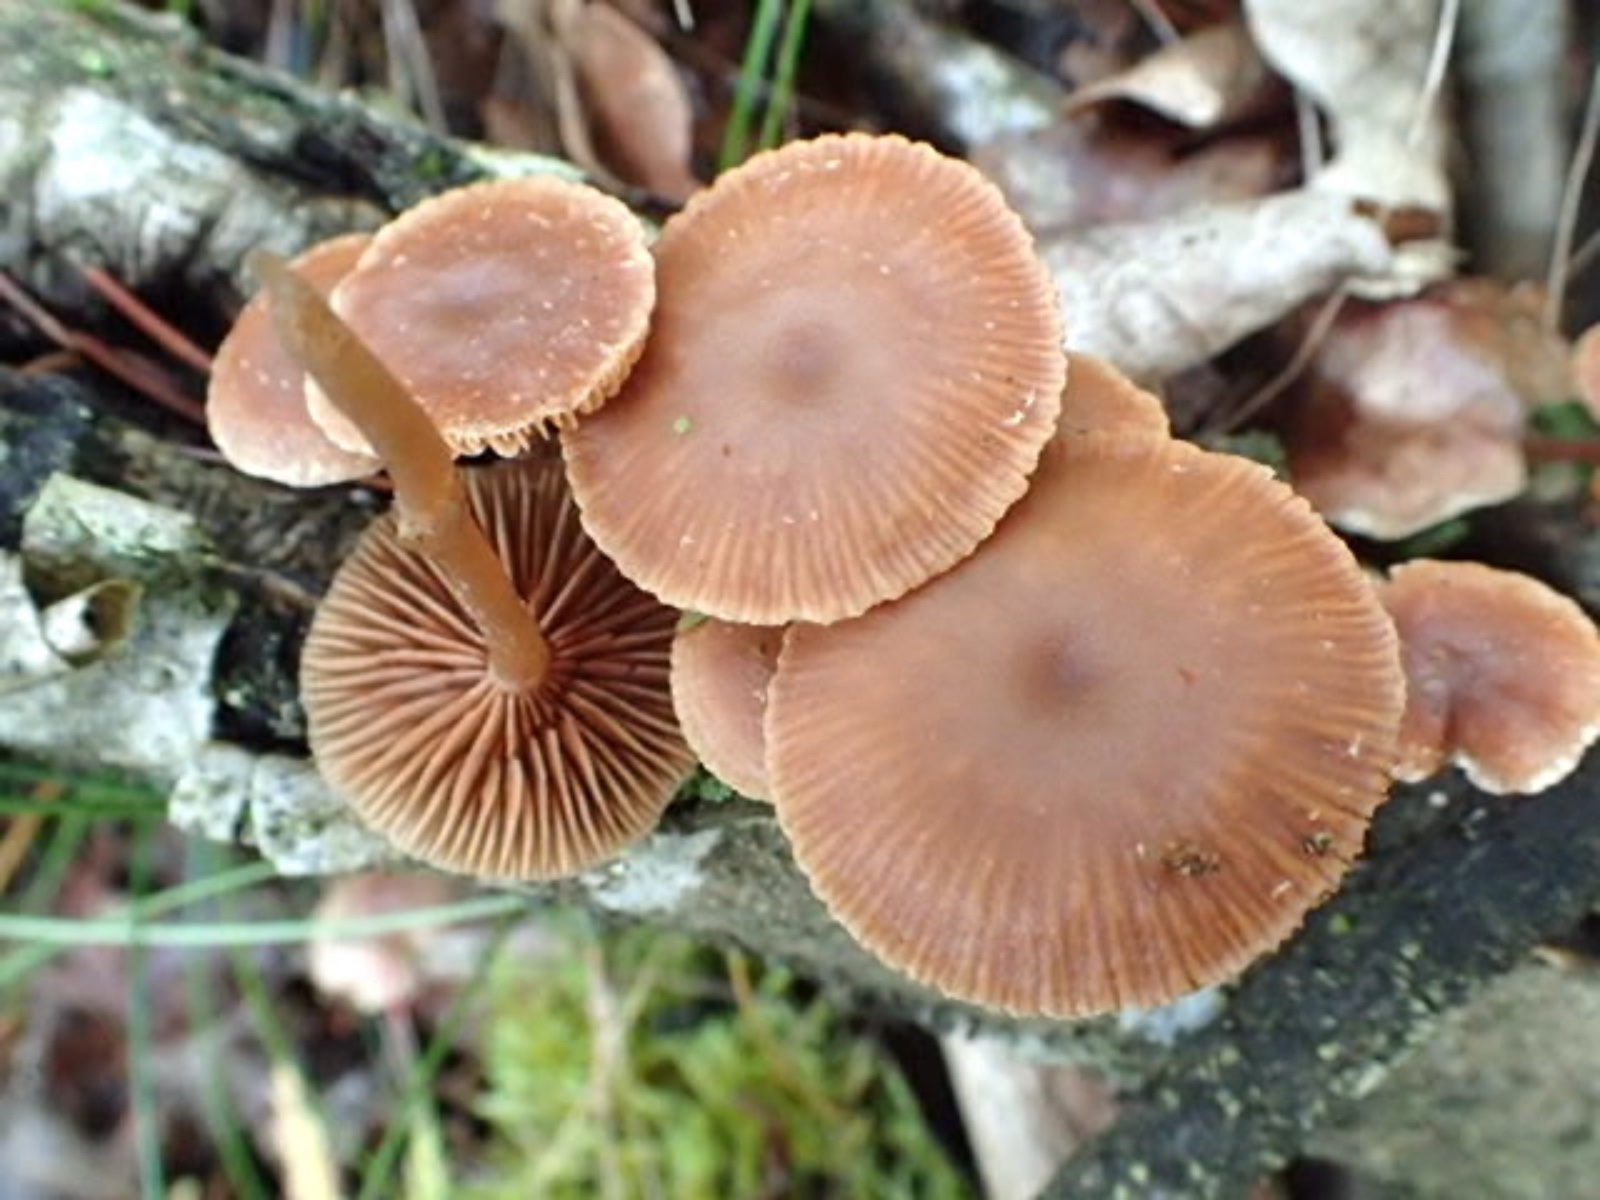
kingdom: Fungi
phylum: Basidiomycota
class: Agaricomycetes
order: Agaricales
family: Tubariaceae
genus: Tubaria
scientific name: Tubaria
